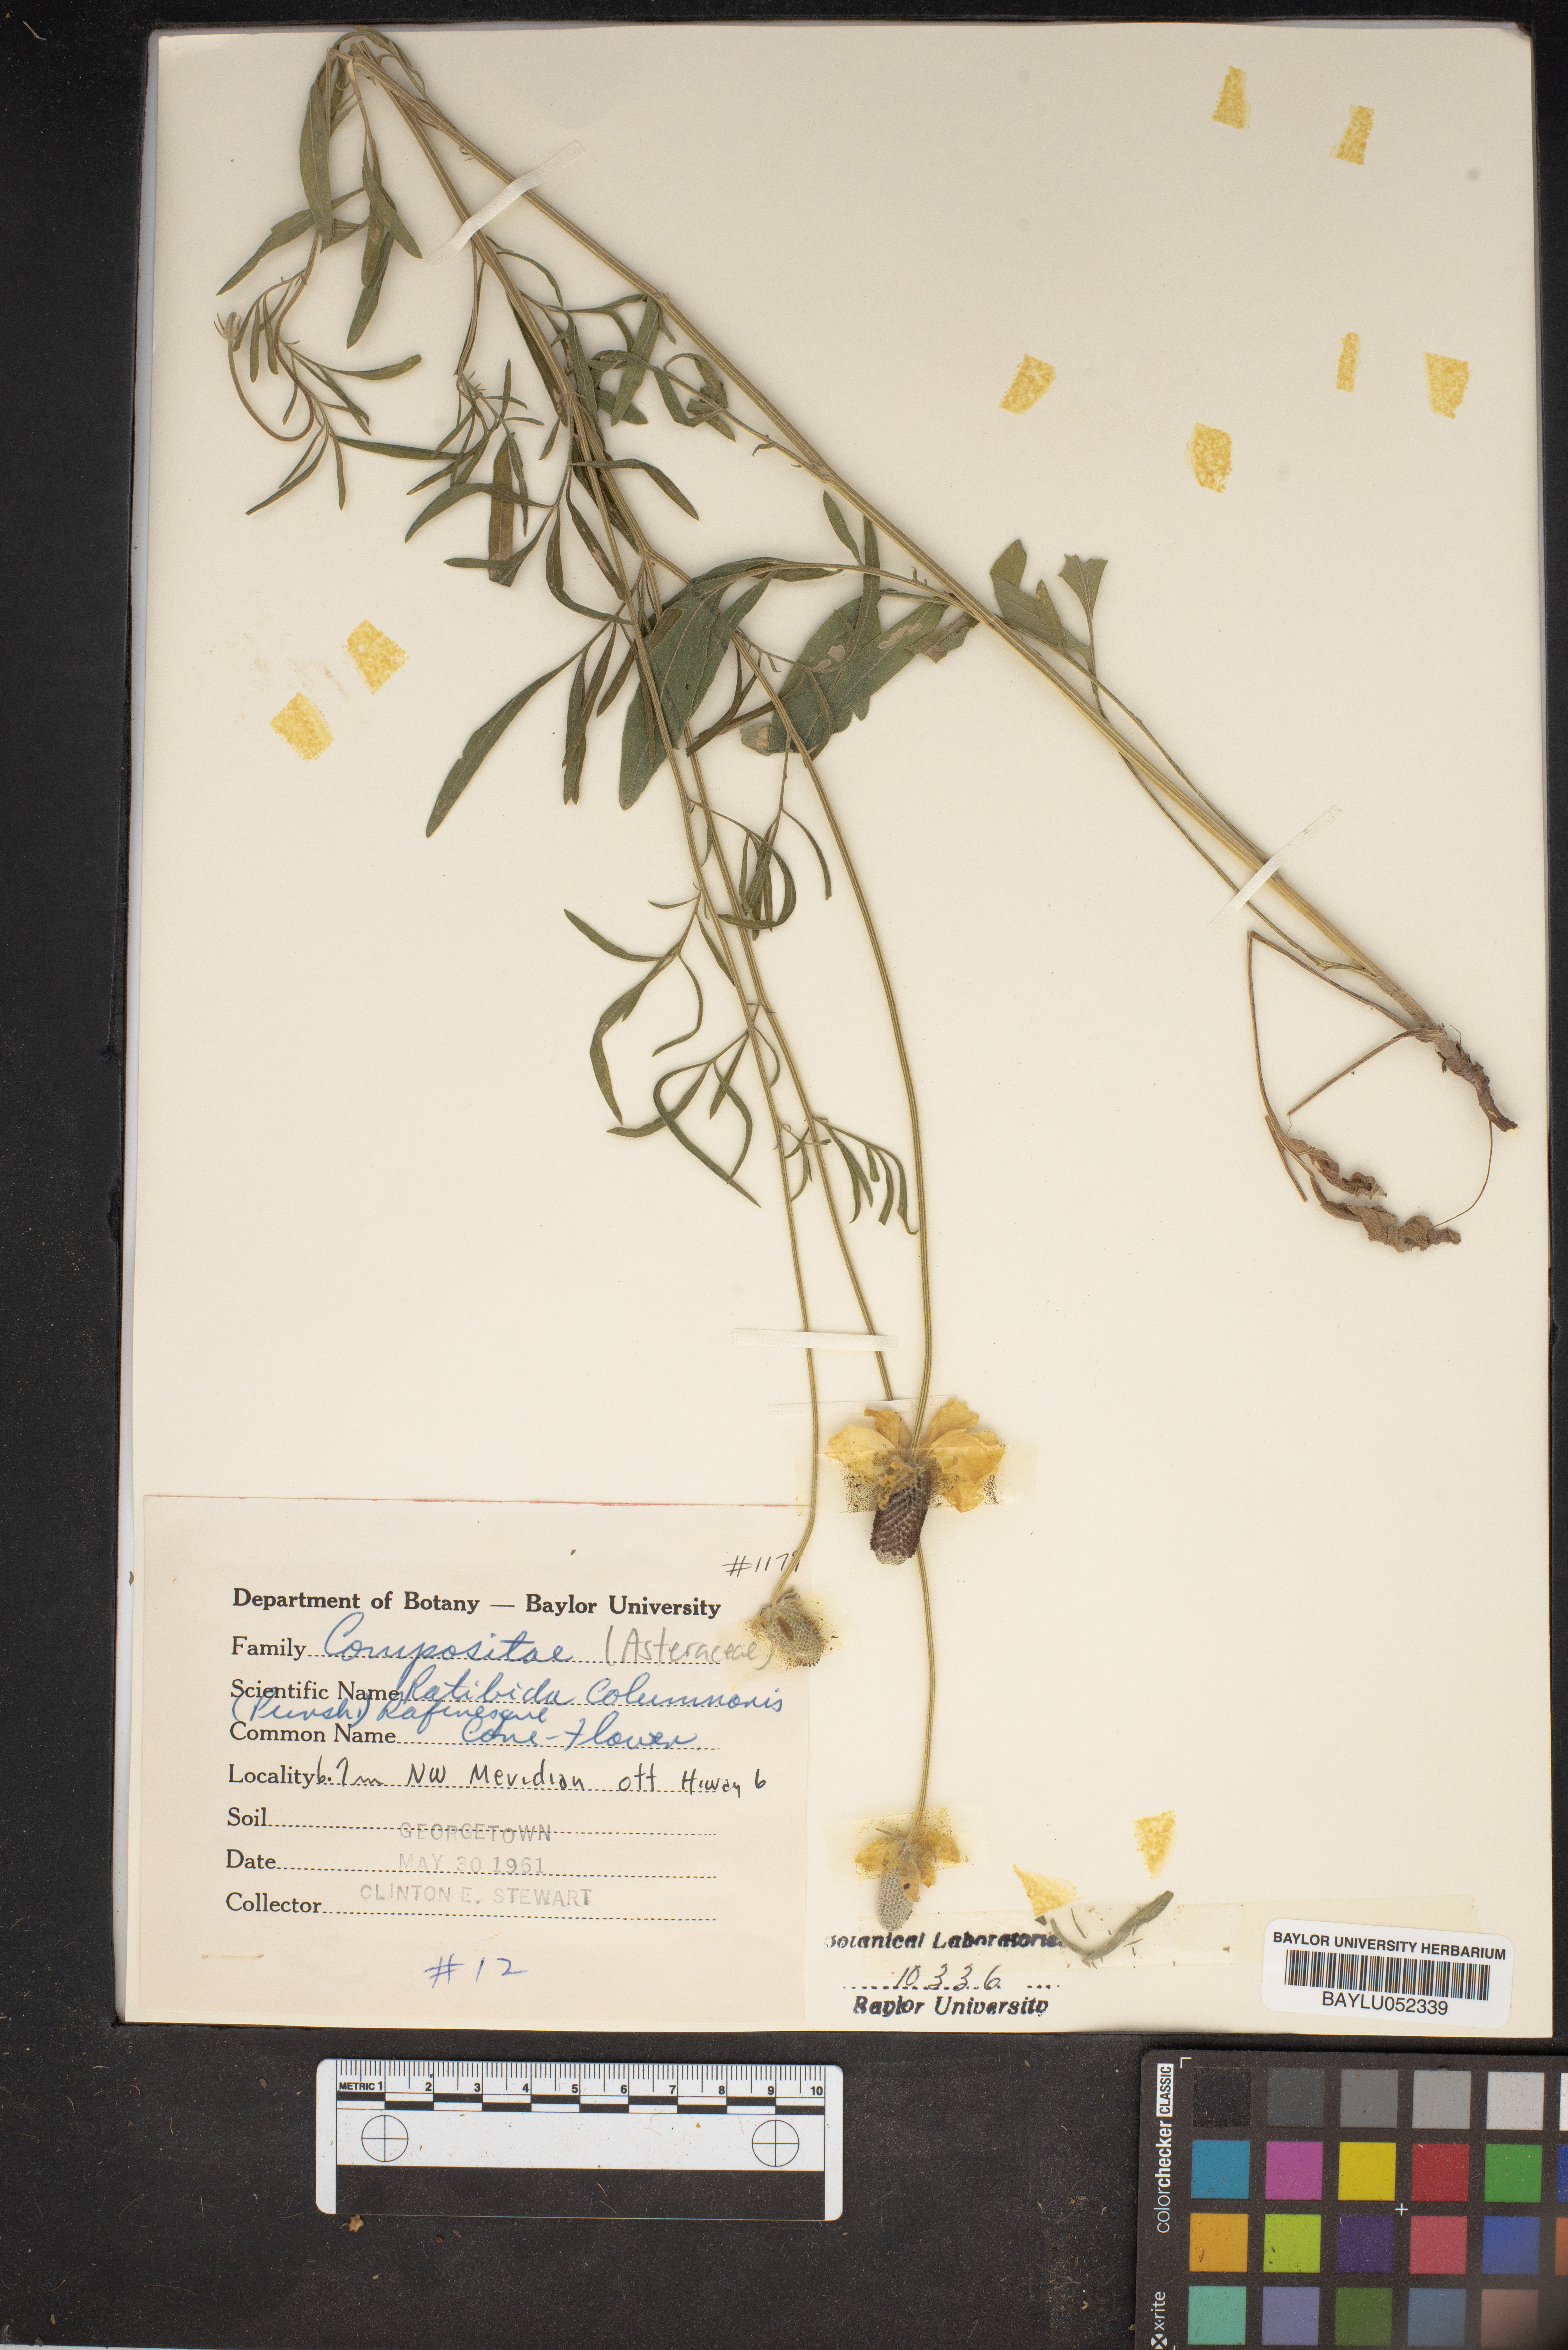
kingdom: Plantae
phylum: Tracheophyta
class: Magnoliopsida
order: Asterales
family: Asteraceae
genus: Ratibida
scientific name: Ratibida columnifera
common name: Prairie coneflower
